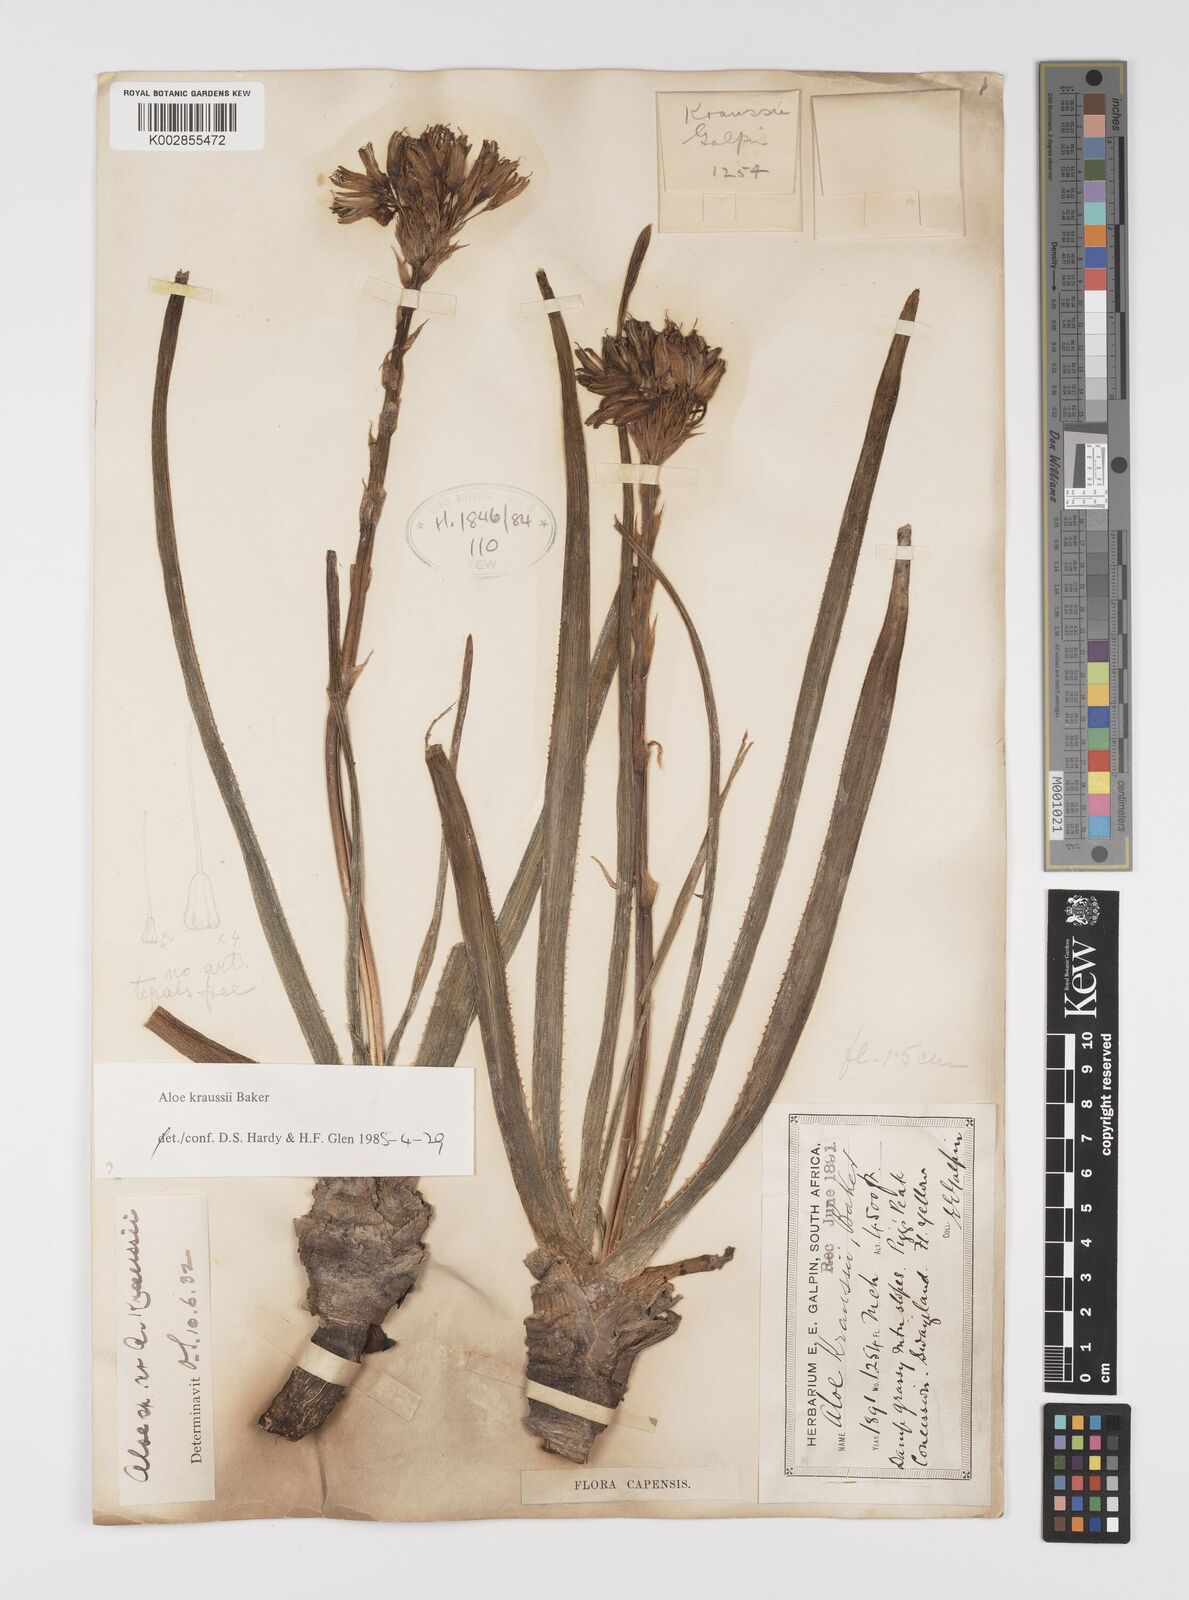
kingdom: Plantae
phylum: Tracheophyta
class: Liliopsida
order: Asparagales
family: Asphodelaceae
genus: Aloe
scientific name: Aloe kraussii
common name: Broad-leaved yellow grass aloe
